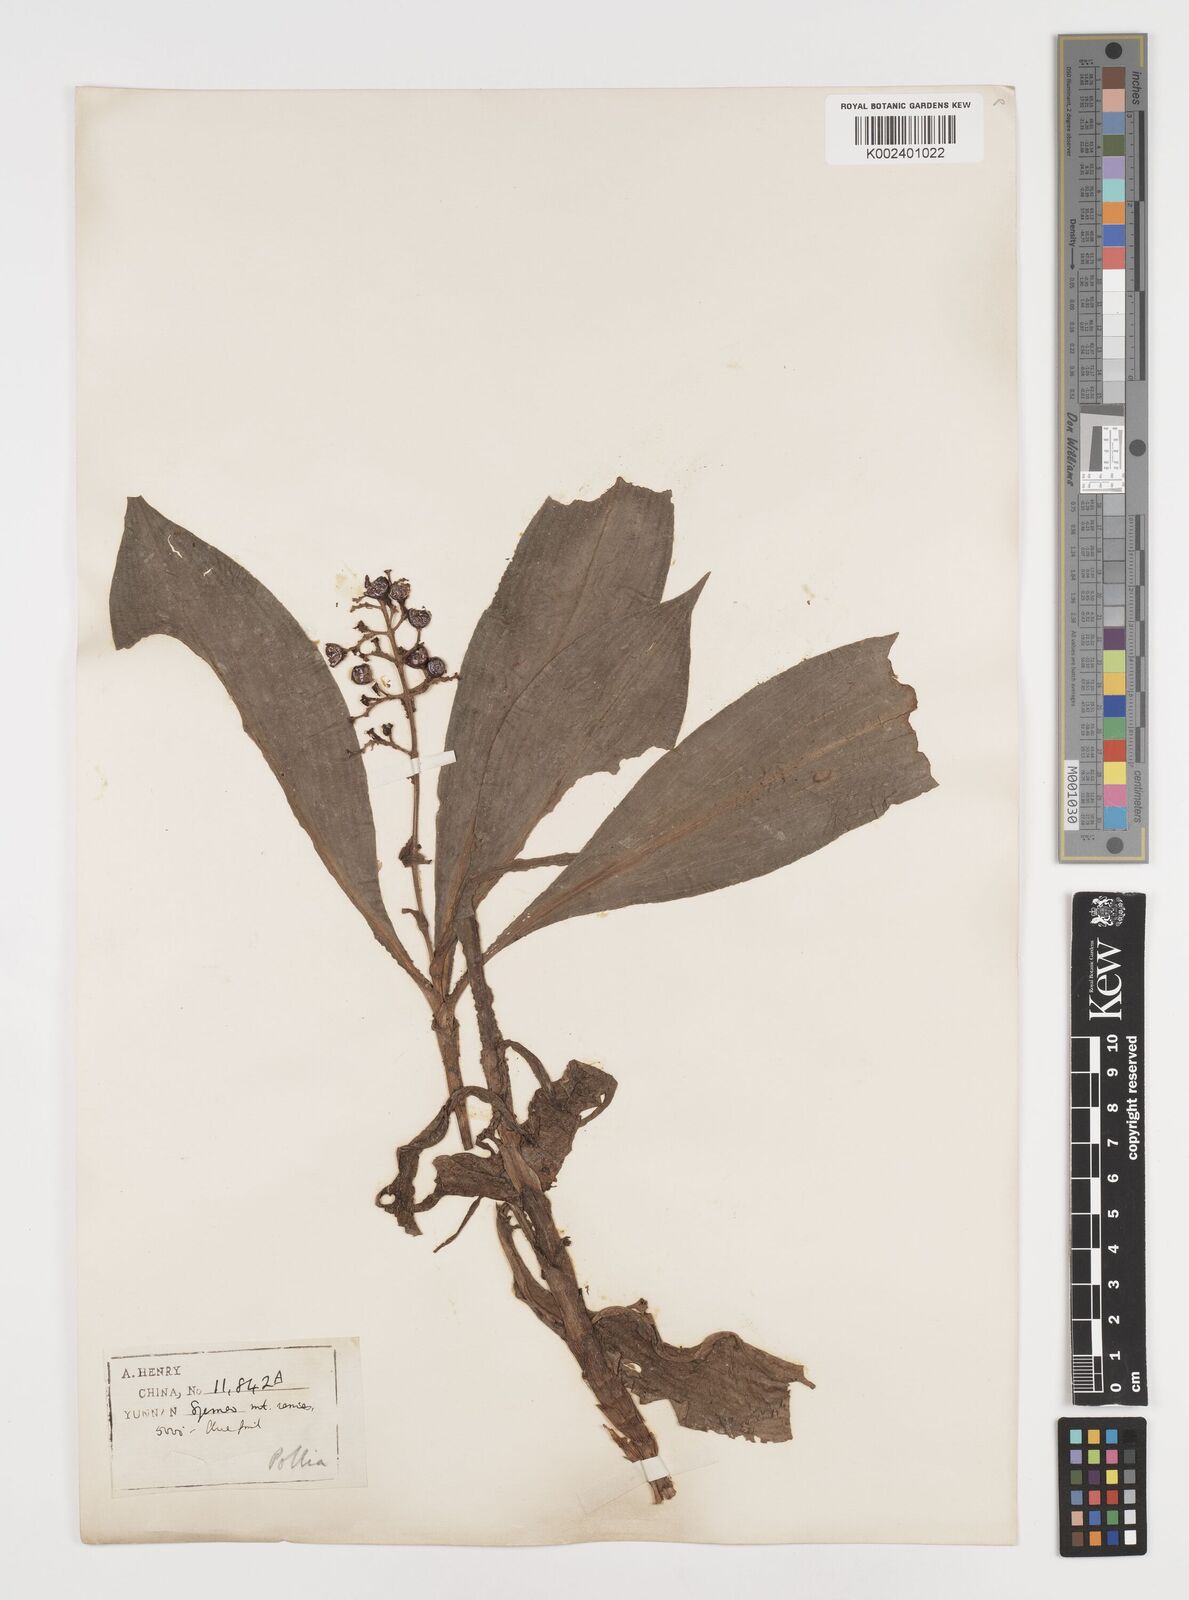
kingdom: Plantae
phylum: Tracheophyta
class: Liliopsida
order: Commelinales
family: Commelinaceae
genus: Pollia
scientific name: Pollia
